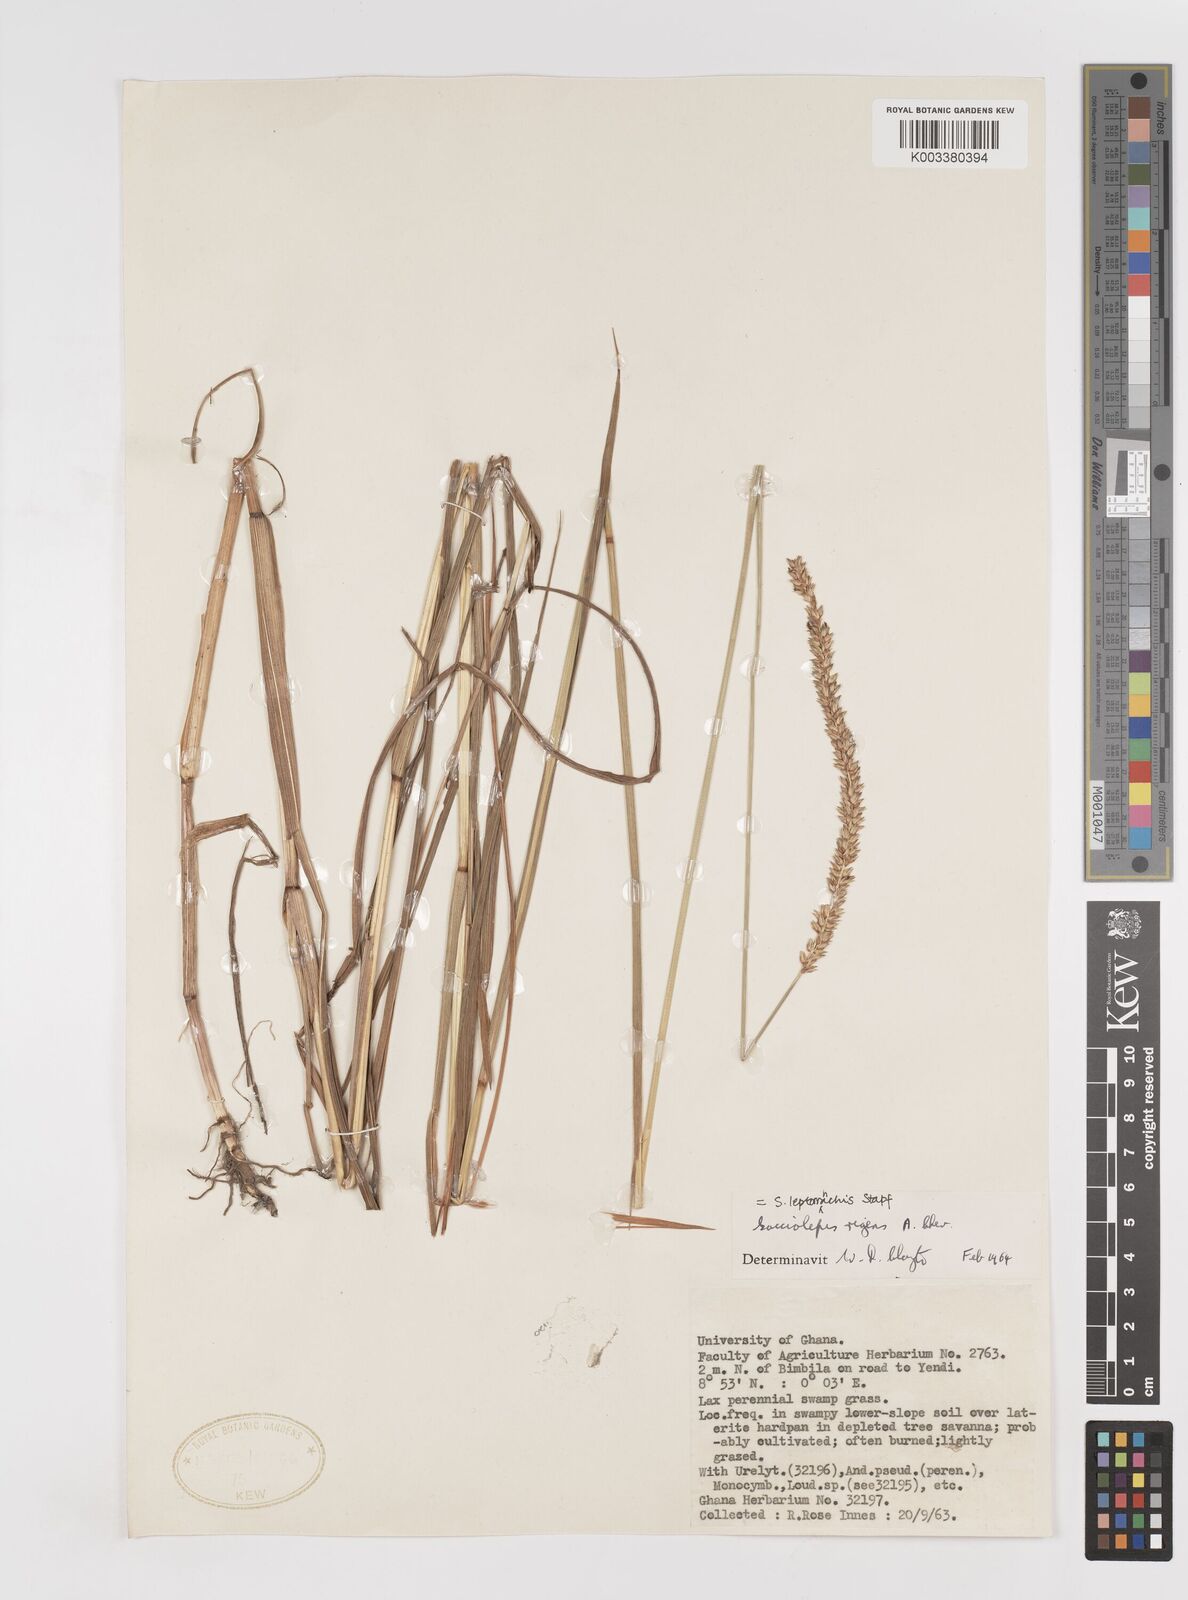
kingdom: Plantae
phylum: Tracheophyta
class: Liliopsida
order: Poales
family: Poaceae
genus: Sacciolepis
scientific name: Sacciolepis leptorrhachis
